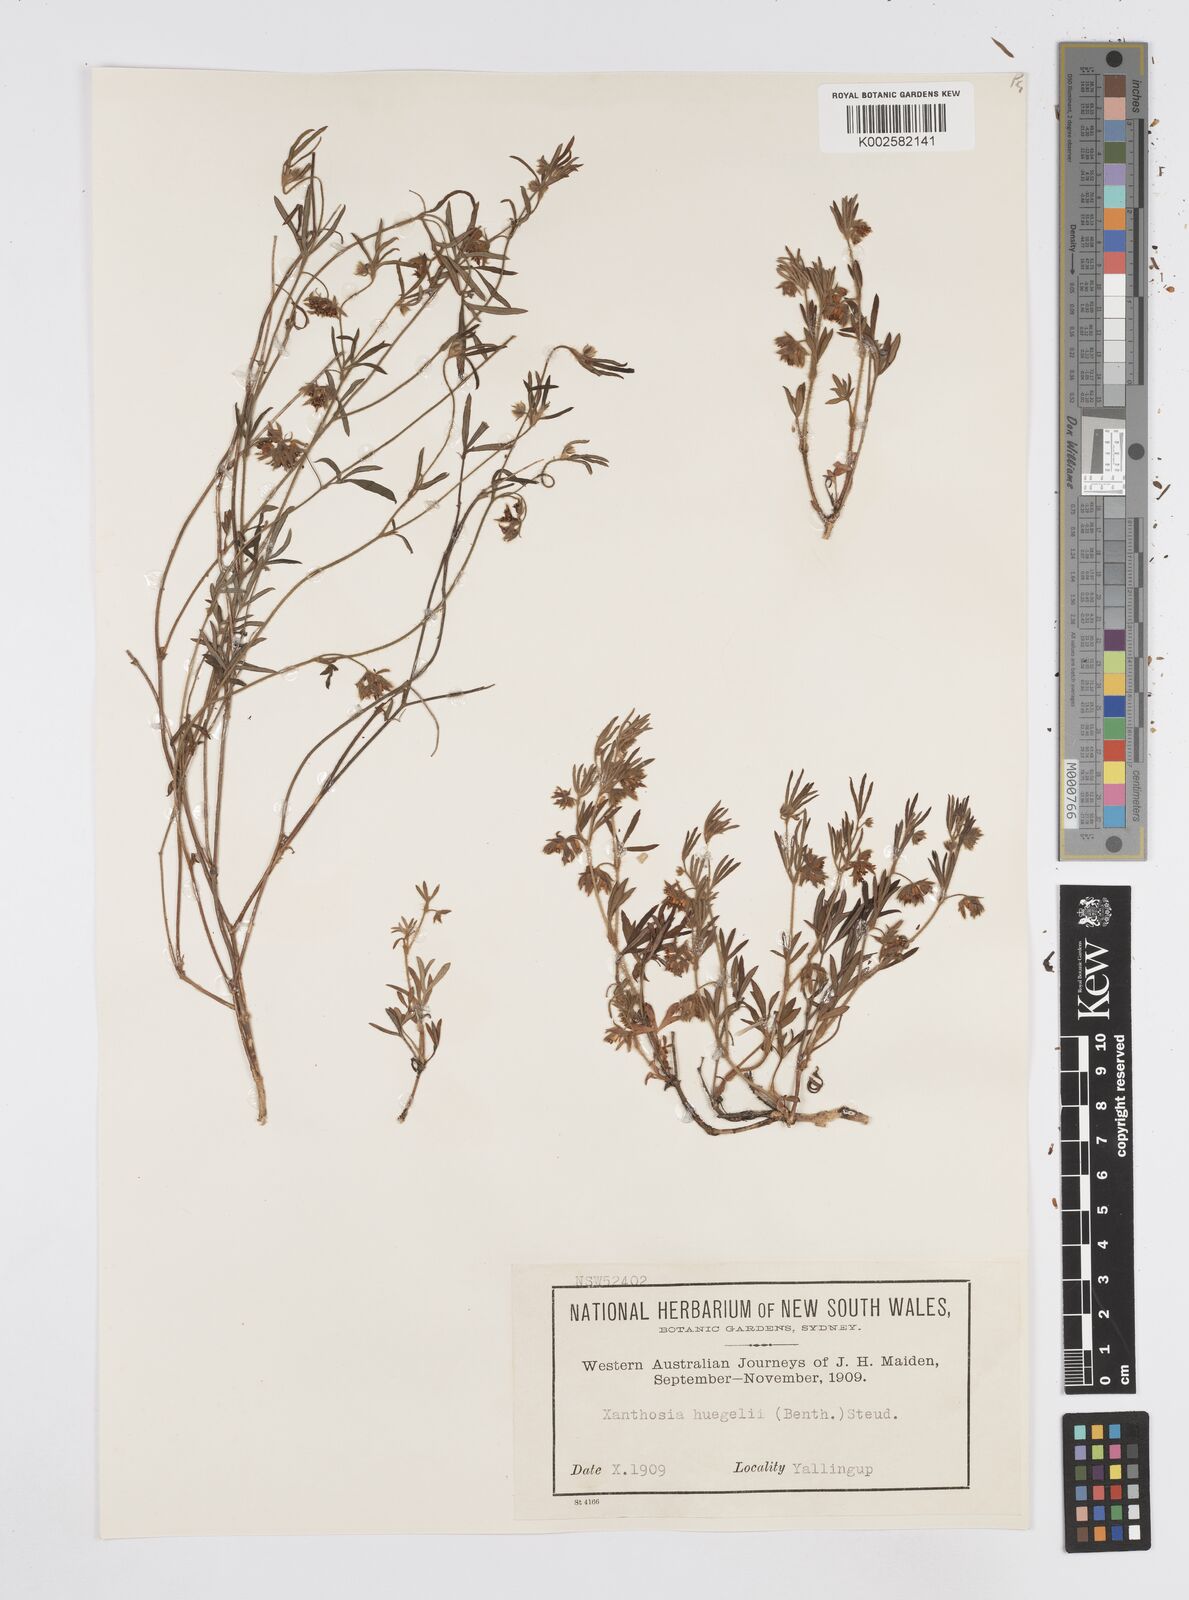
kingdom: Plantae
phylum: Tracheophyta
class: Magnoliopsida
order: Apiales
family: Apiaceae
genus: Xanthosia
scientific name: Xanthosia huegelii
